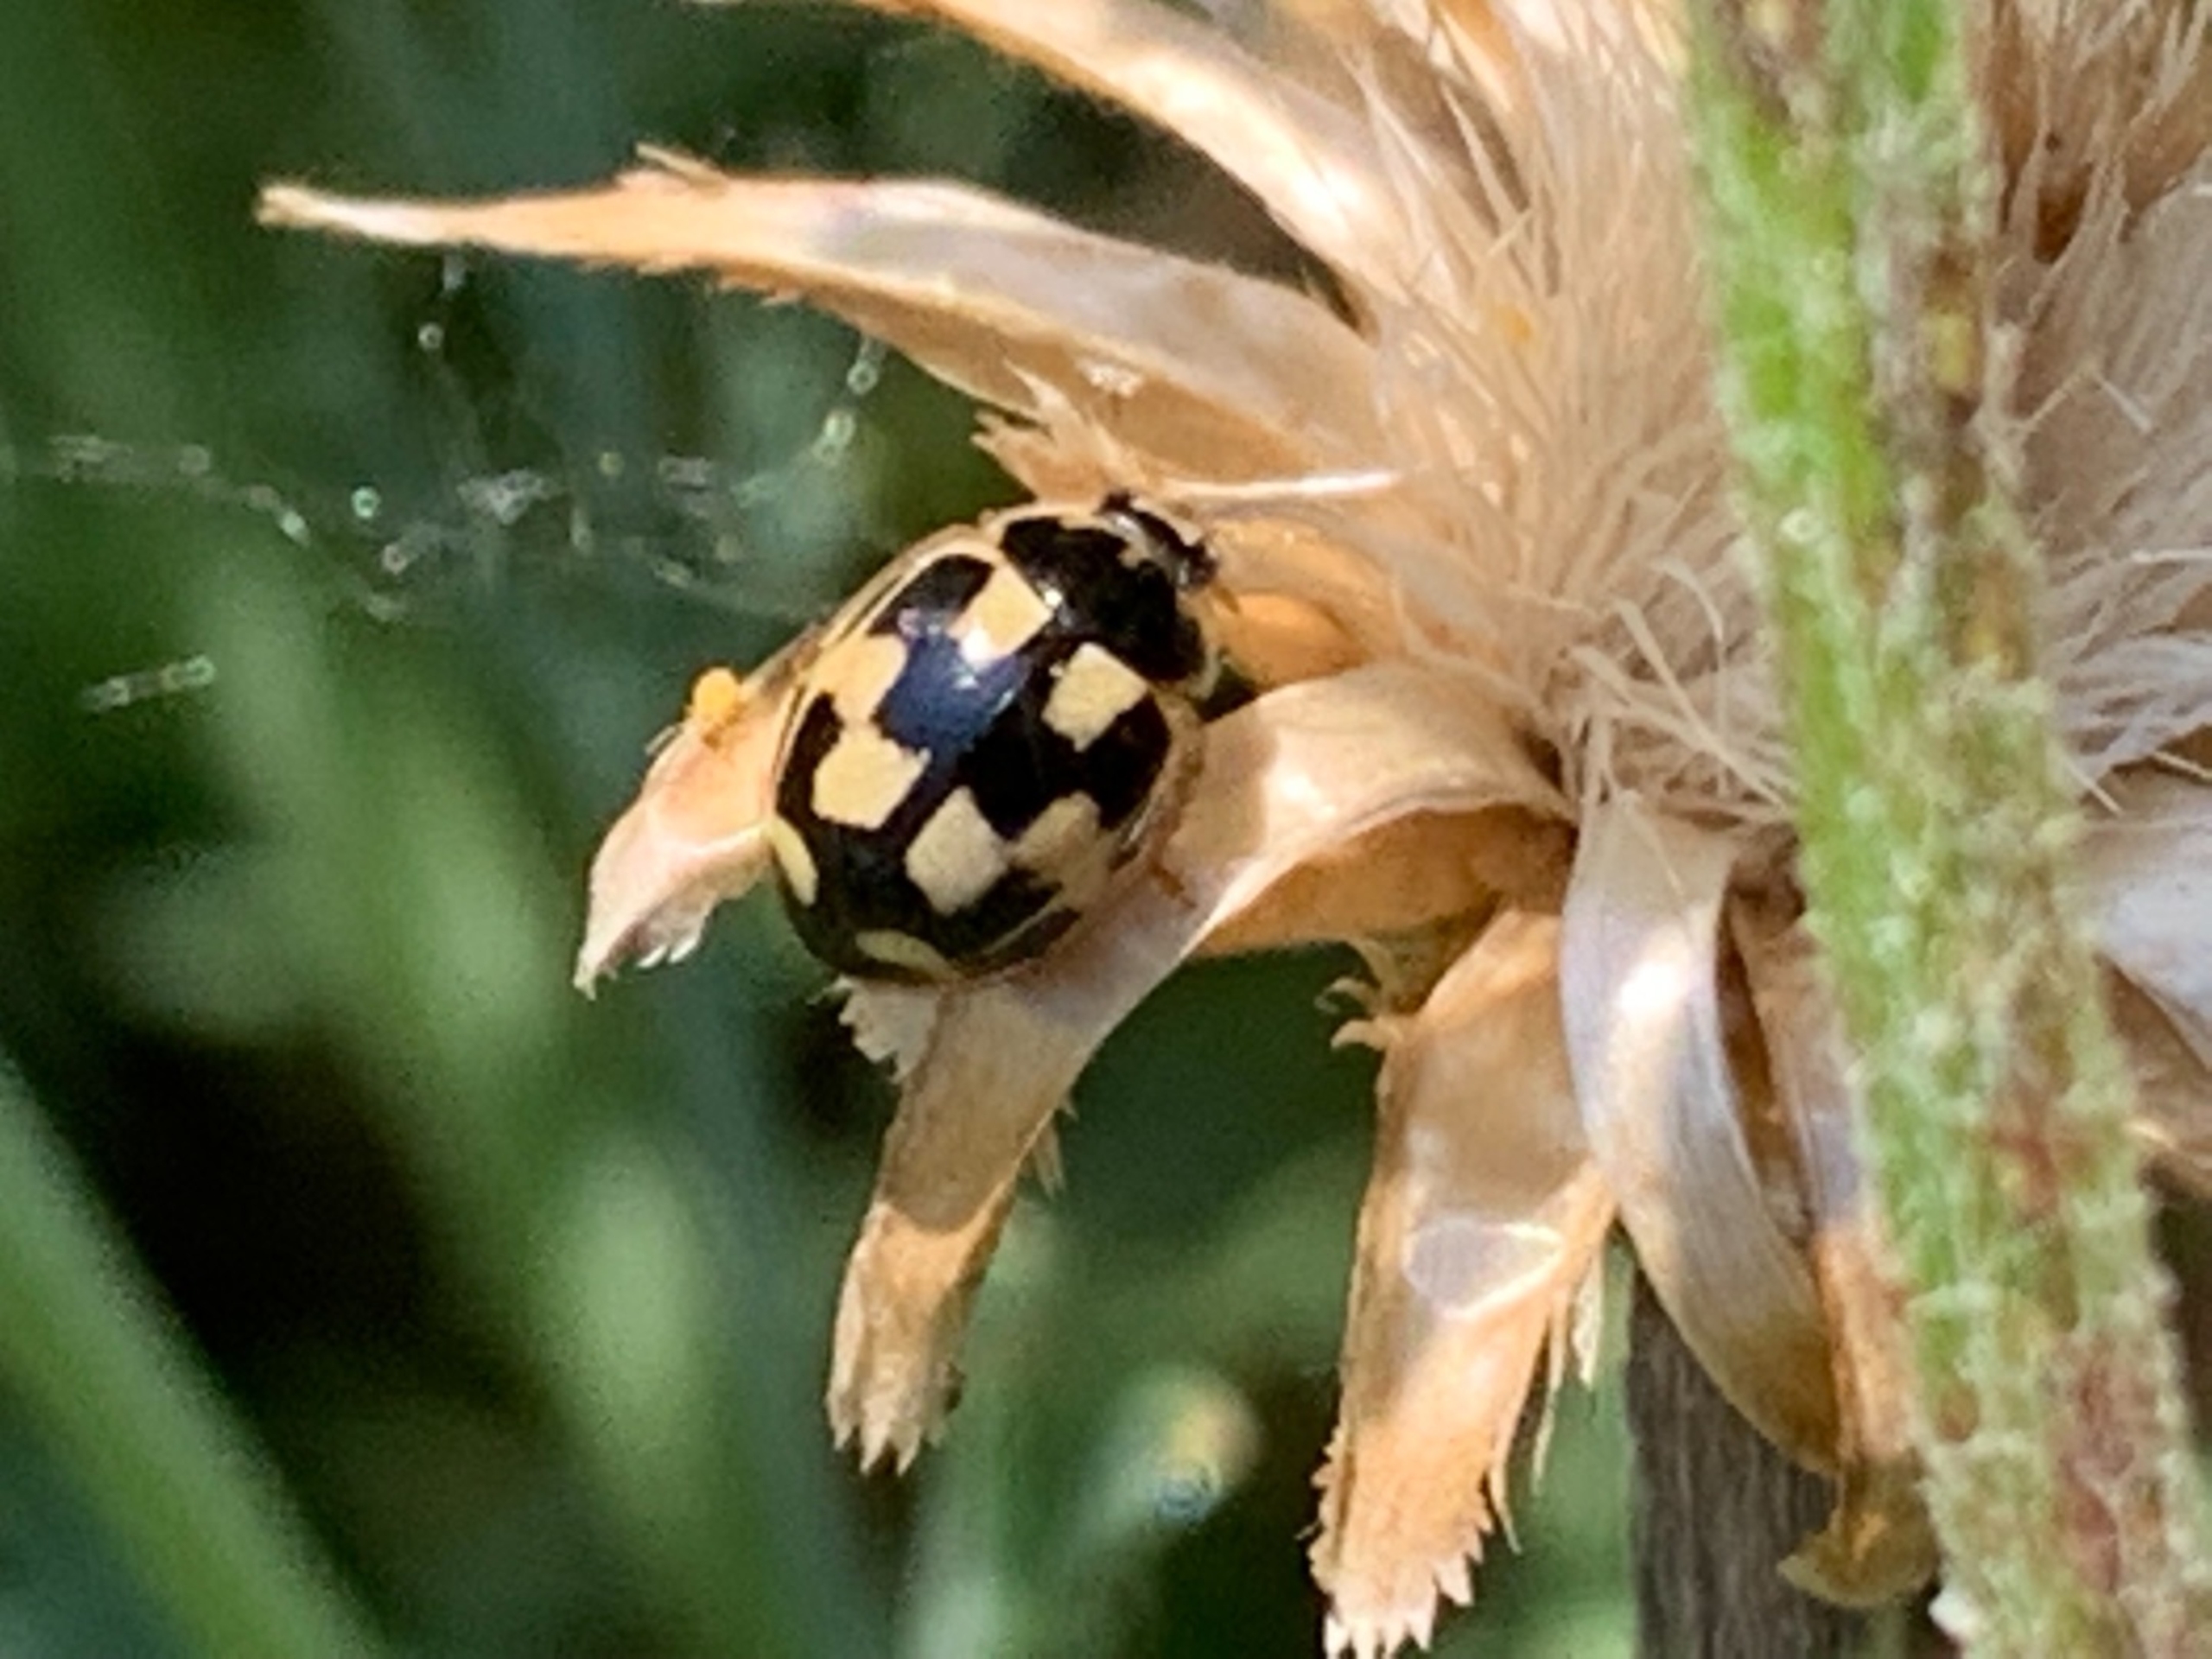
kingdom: Animalia
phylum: Arthropoda
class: Insecta
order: Coleoptera
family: Coccinellidae
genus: Propylaea
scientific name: Propylaea quatuordecimpunctata
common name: Skakbræt
